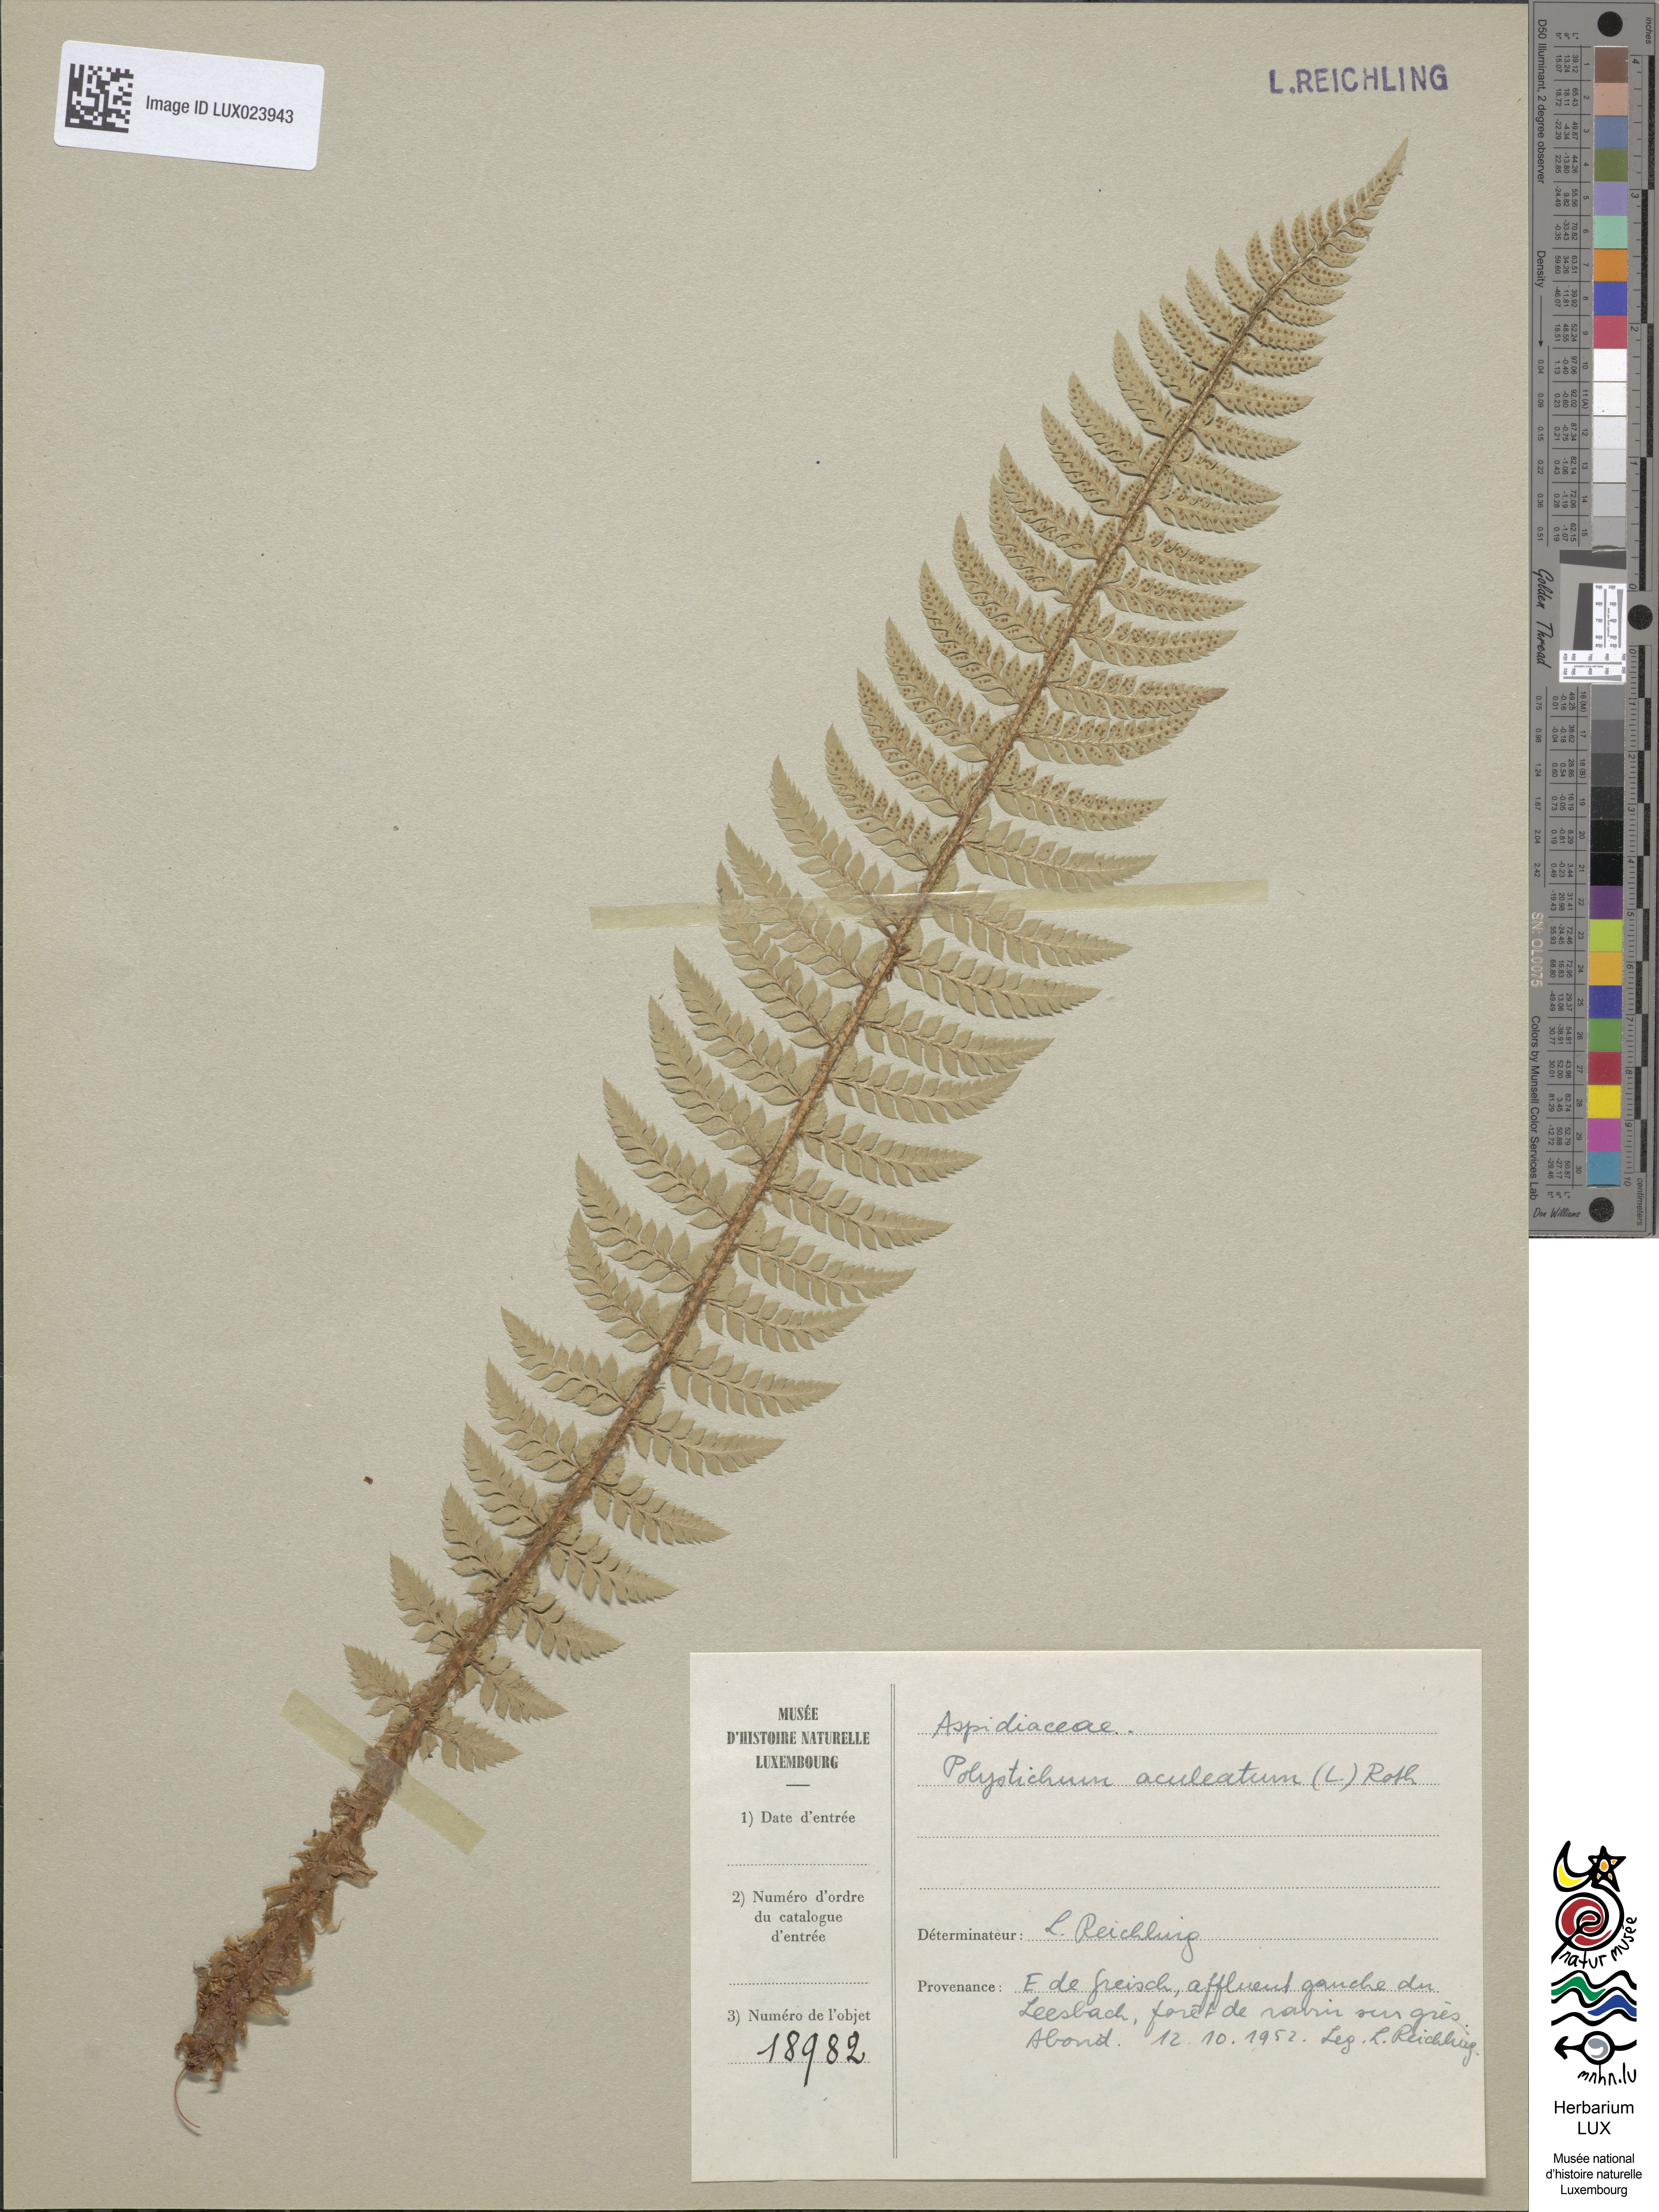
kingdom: Plantae
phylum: Tracheophyta
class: Polypodiopsida
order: Polypodiales
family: Dryopteridaceae
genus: Polystichum
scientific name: Polystichum aculeatum
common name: Hard shield-fern
